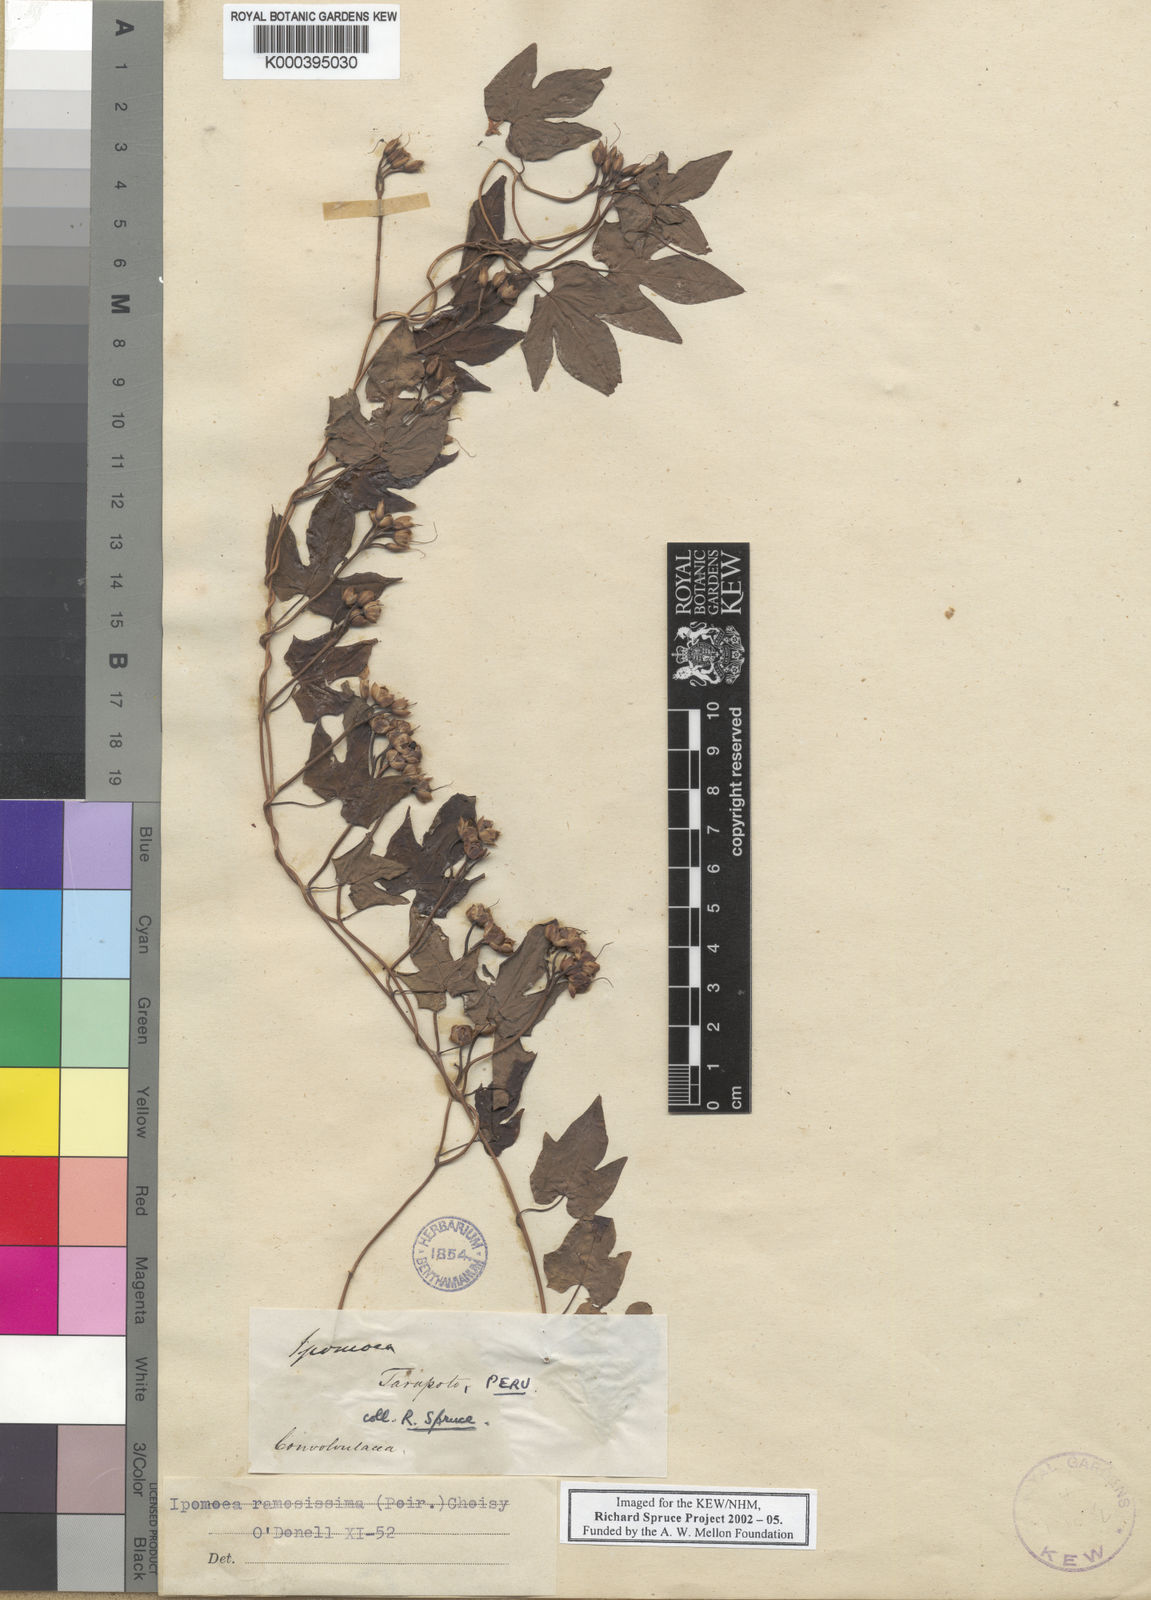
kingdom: Plantae
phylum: Tracheophyta
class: Magnoliopsida
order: Solanales
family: Convolvulaceae
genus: Ipomoea
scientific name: Ipomoea ramosissima
